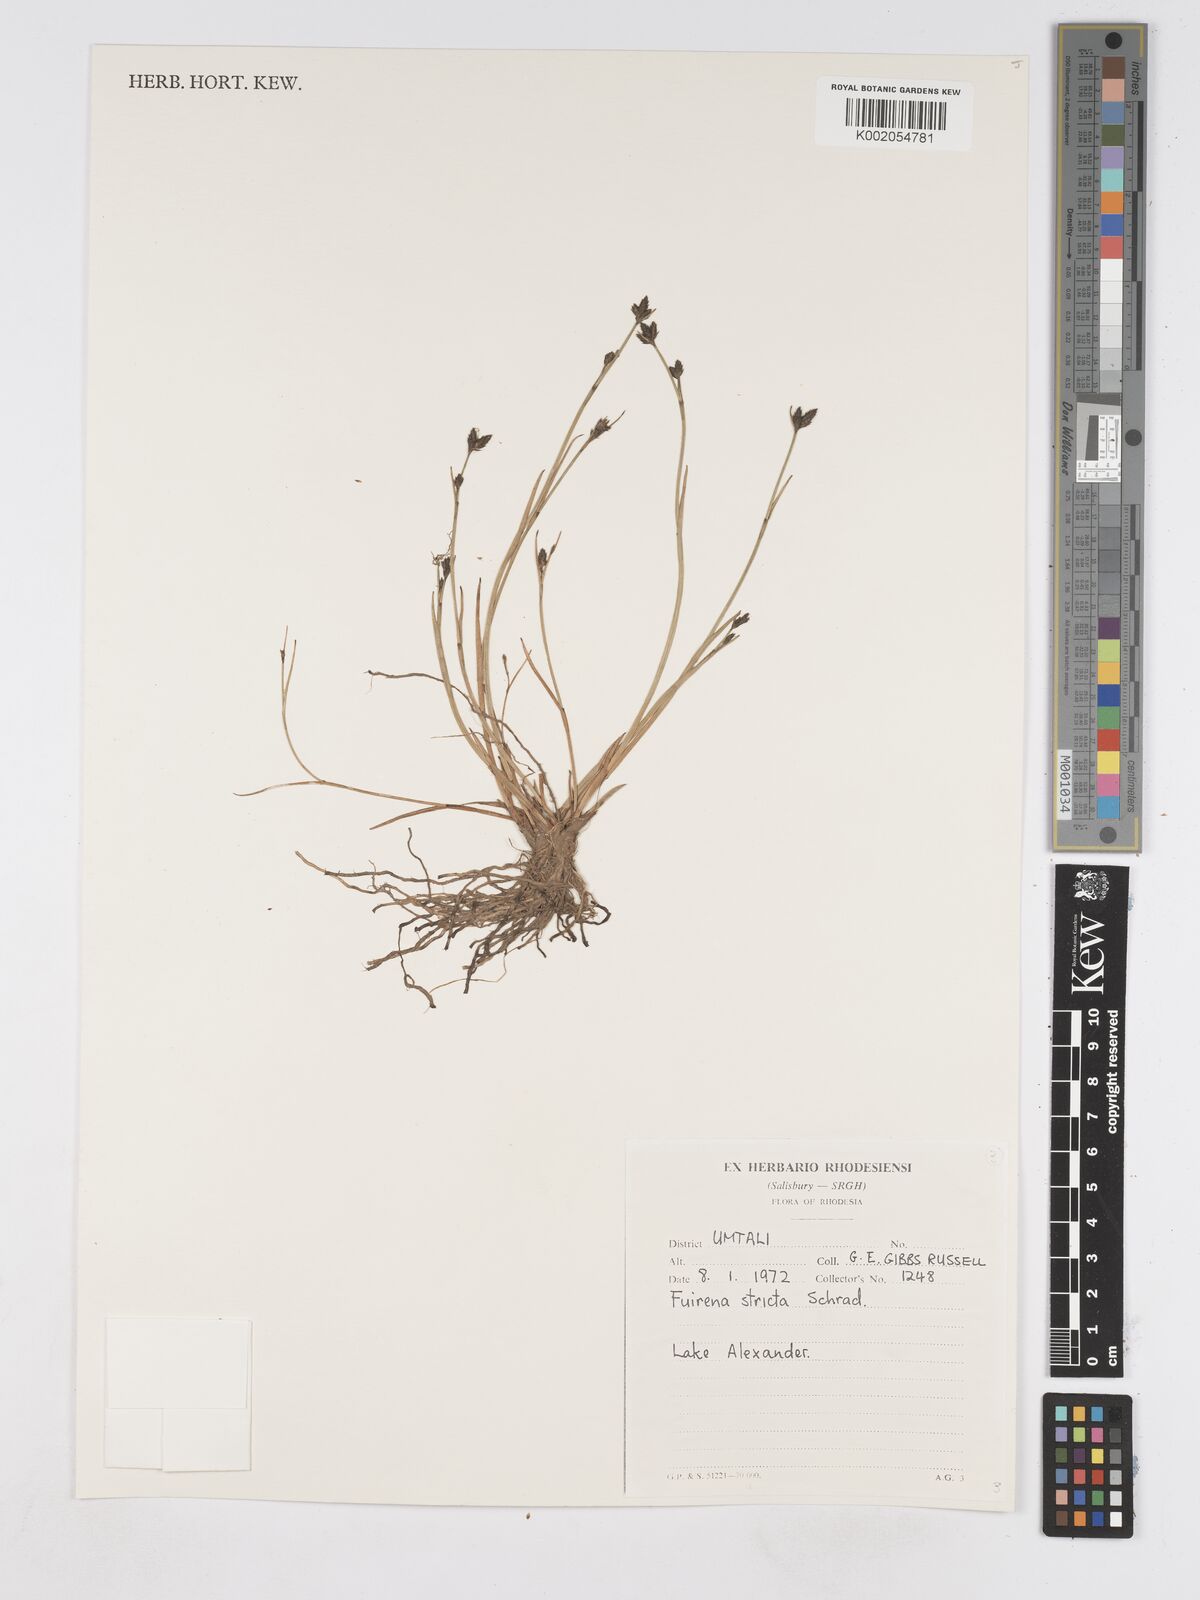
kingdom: Plantae
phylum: Tracheophyta
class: Liliopsida
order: Poales
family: Cyperaceae
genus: Fuirena
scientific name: Fuirena stricta
